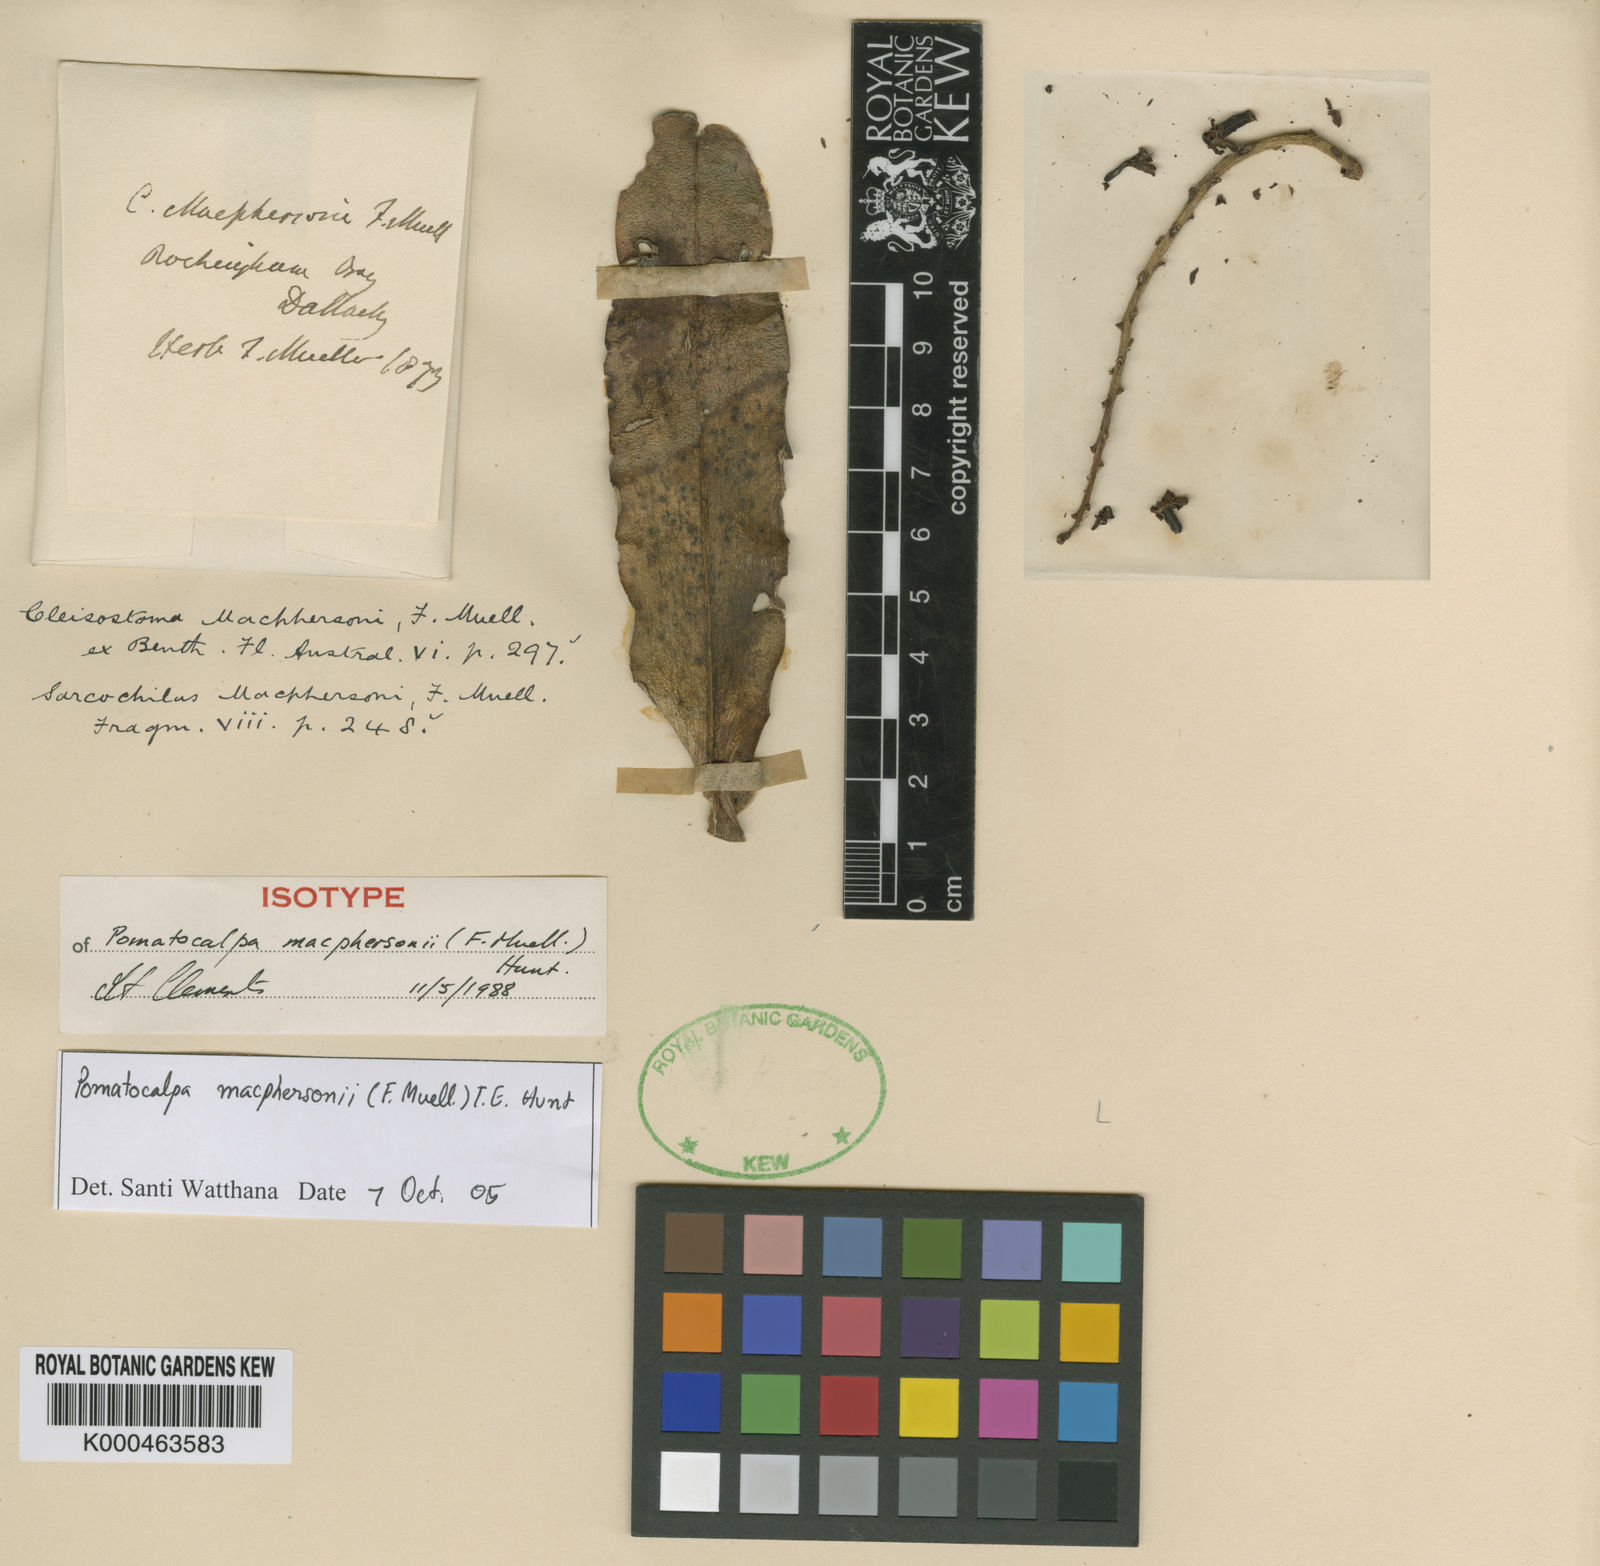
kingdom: Plantae
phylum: Tracheophyta
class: Liliopsida
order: Asparagales
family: Orchidaceae
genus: Pomatocalpa
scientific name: Pomatocalpa macphersonii
